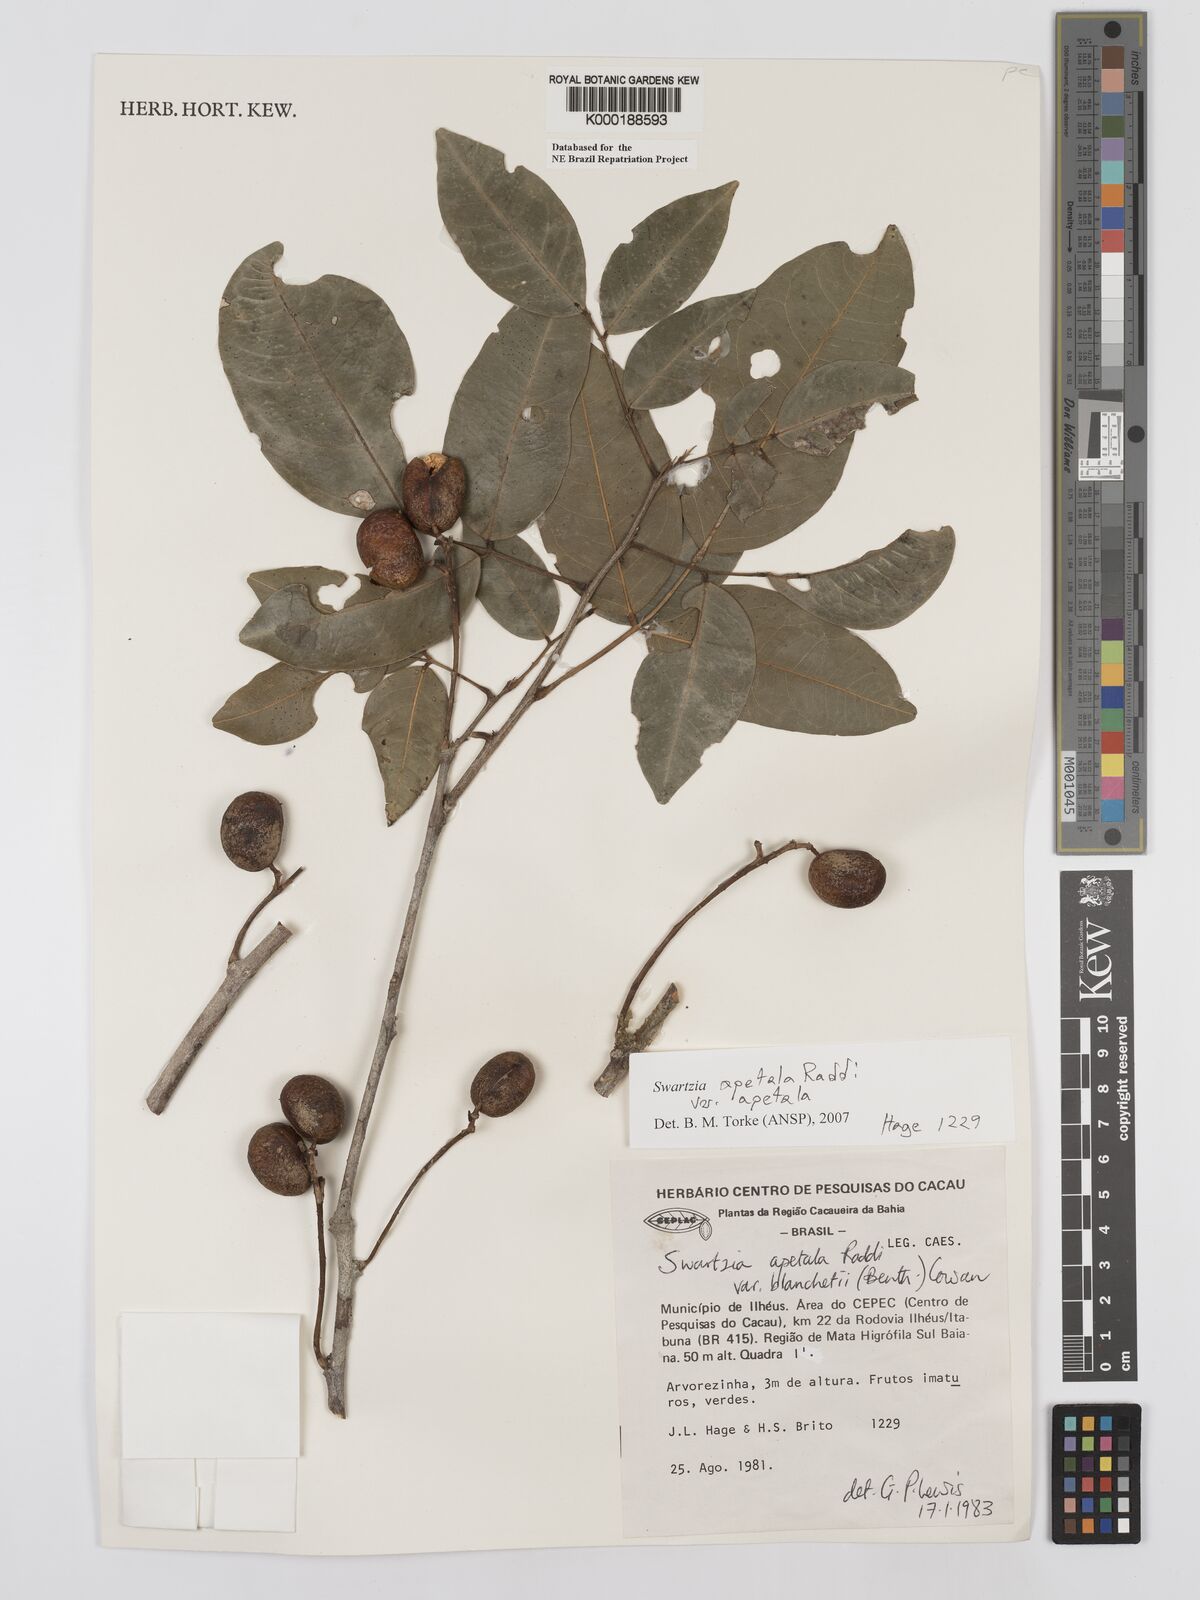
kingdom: Plantae
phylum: Tracheophyta
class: Magnoliopsida
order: Fabales
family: Fabaceae
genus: Swartzia
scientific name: Swartzia apetala
